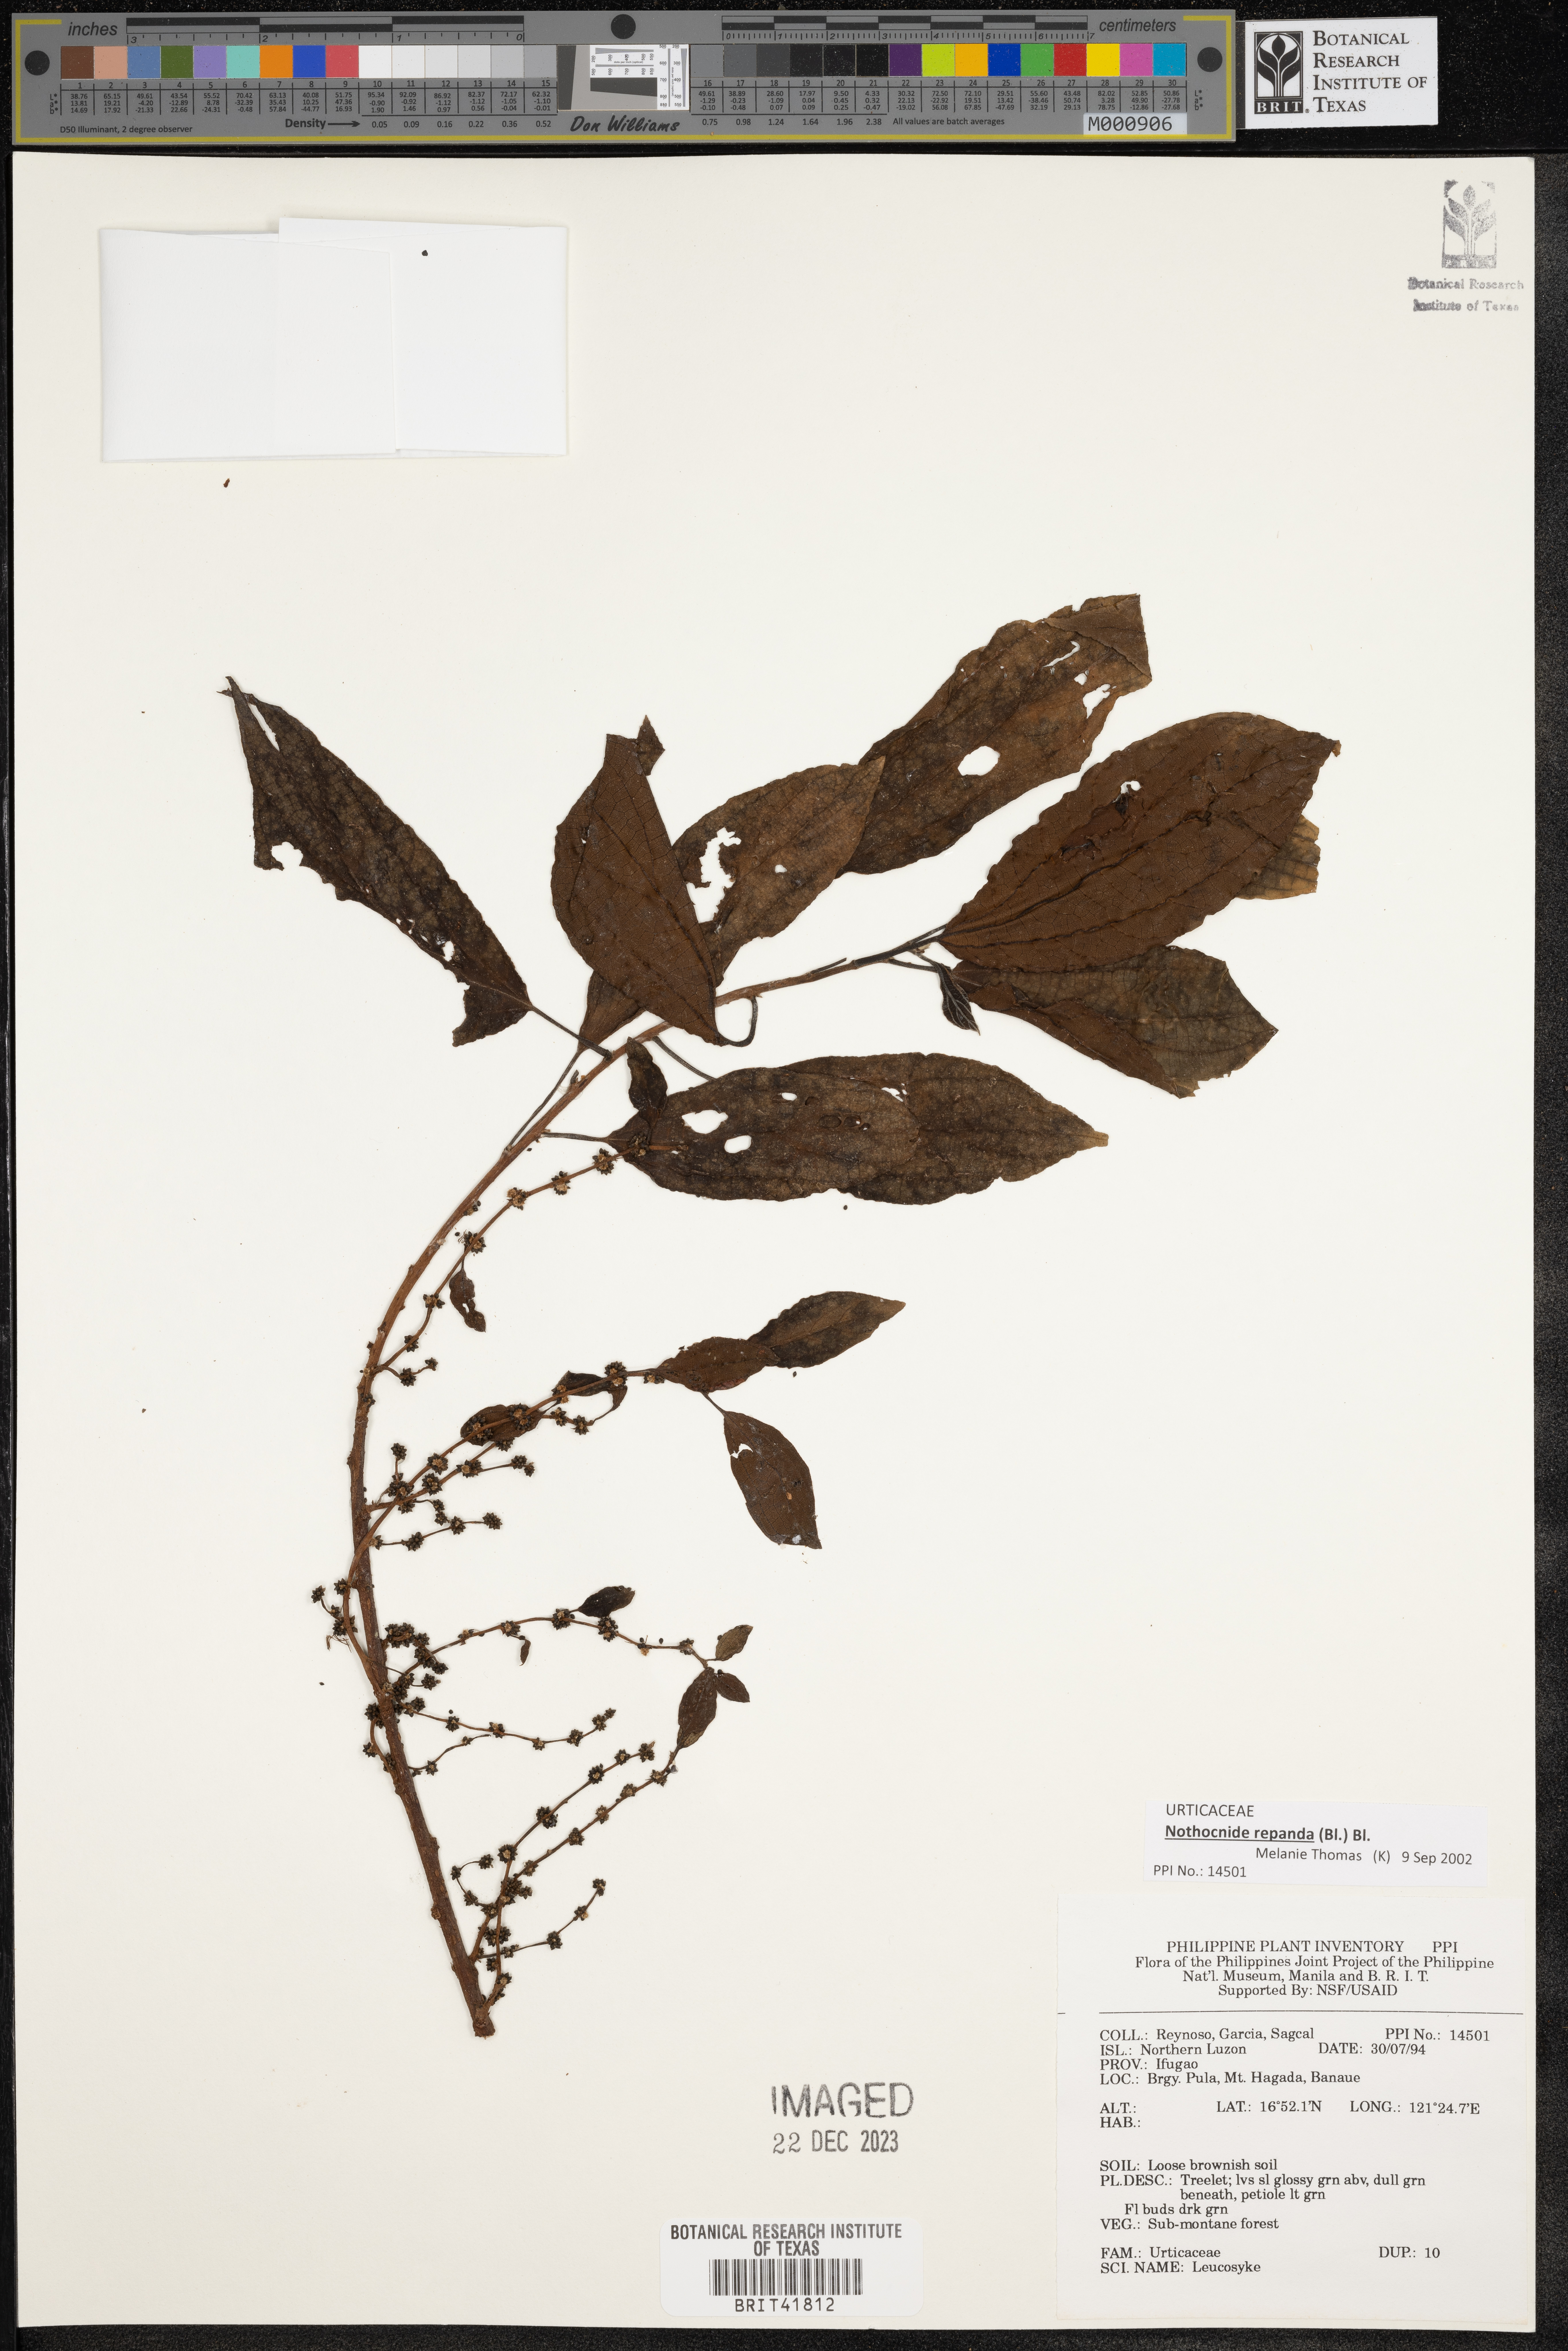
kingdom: Plantae
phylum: Tracheophyta
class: Magnoliopsida
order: Rosales
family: Urticaceae
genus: Leucosyke
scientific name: Leucosyke
